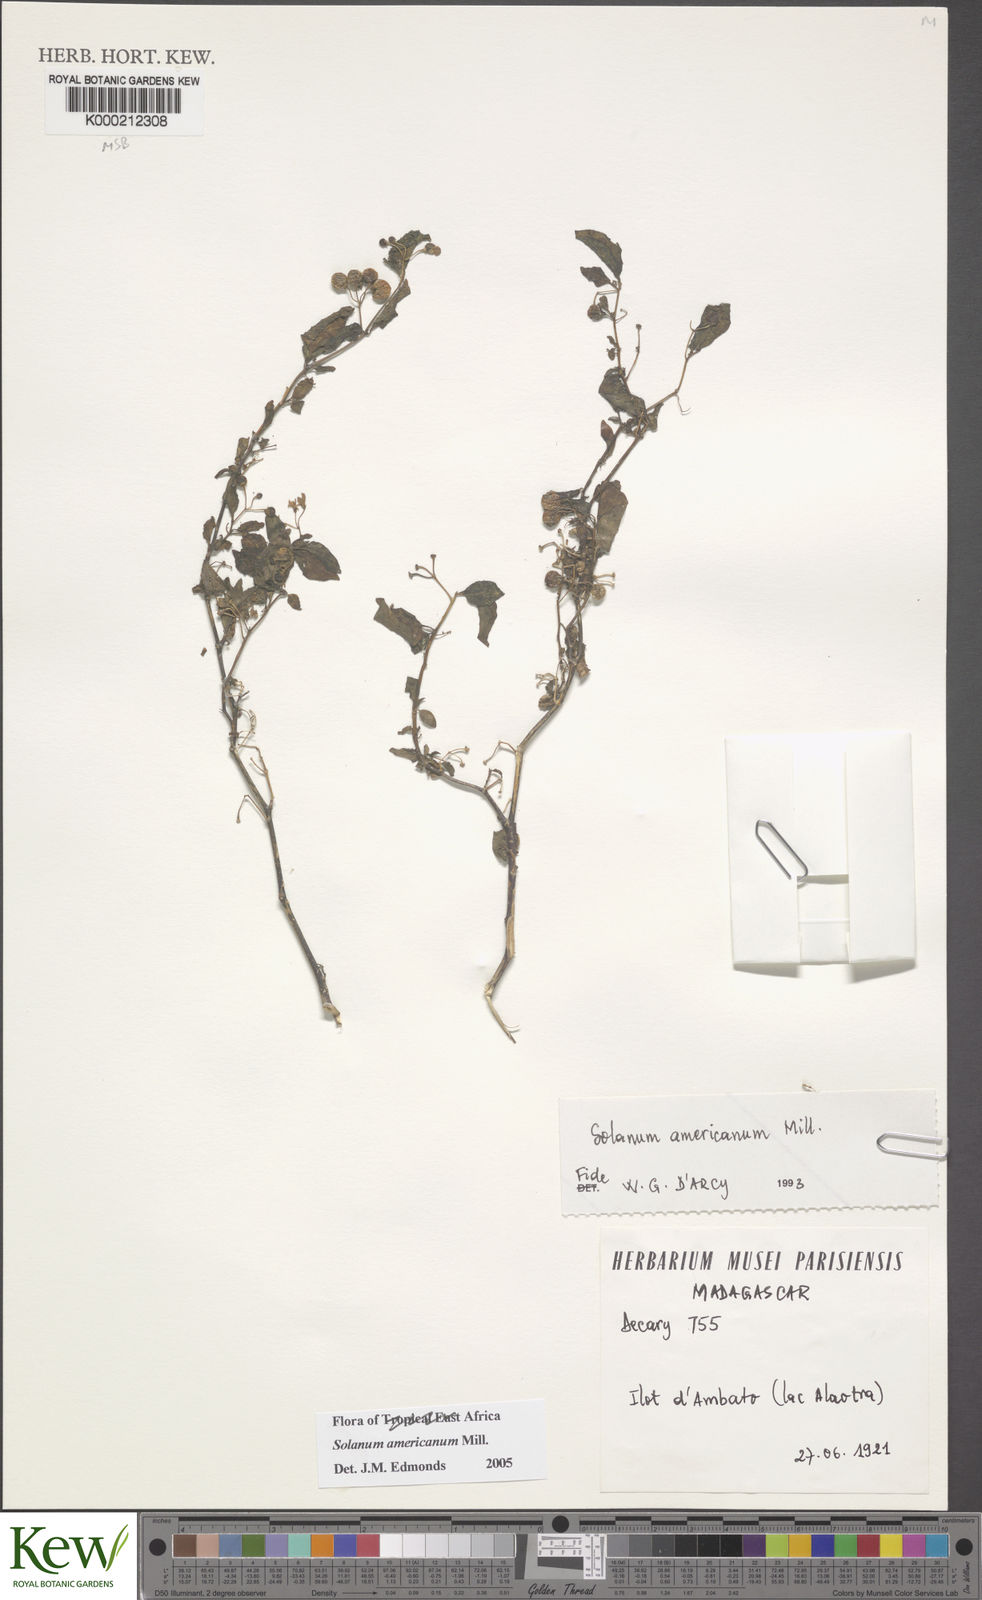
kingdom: Plantae
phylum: Tracheophyta
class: Magnoliopsida
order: Solanales
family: Solanaceae
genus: Solanum
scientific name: Solanum americanum
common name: American black nightshade
